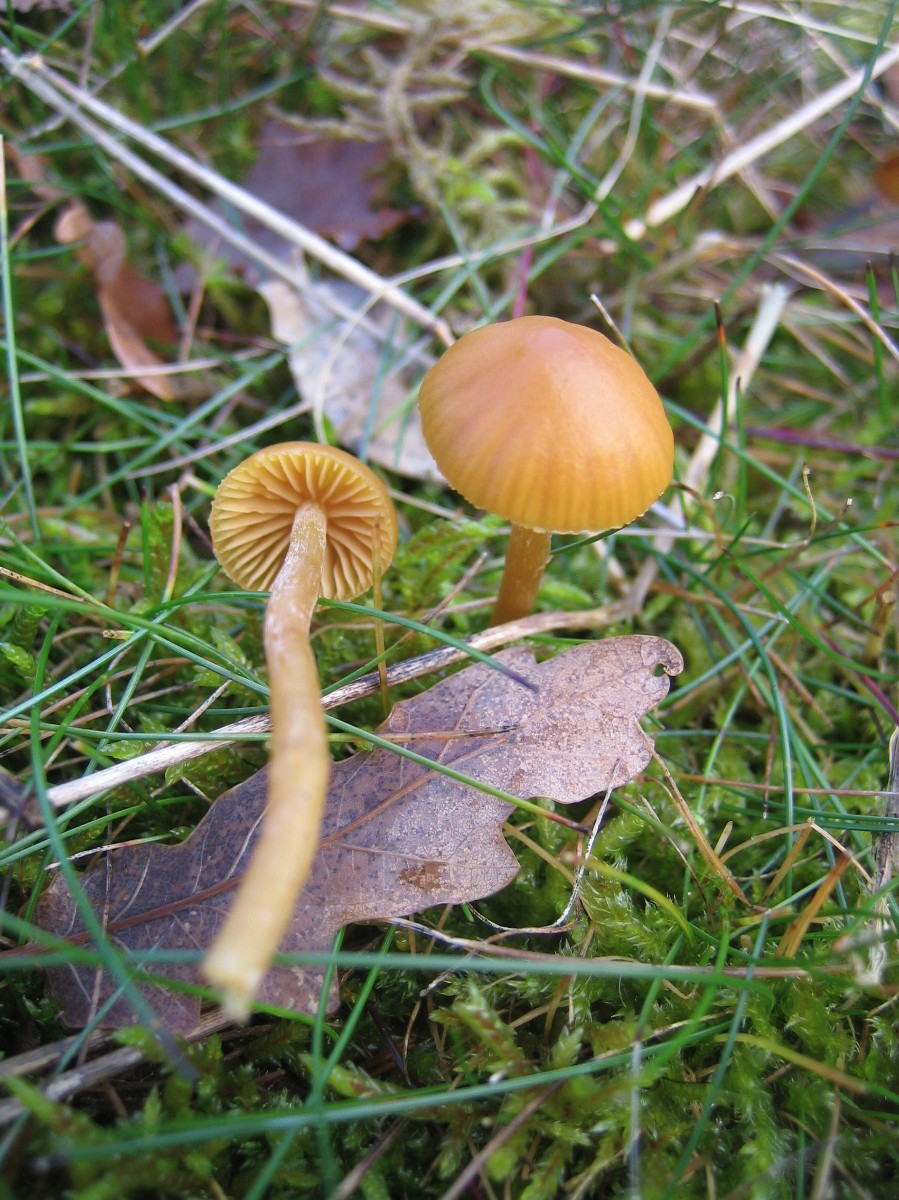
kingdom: Fungi
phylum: Basidiomycota
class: Agaricomycetes
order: Agaricales
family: Hymenogastraceae
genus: Galerina
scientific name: Galerina pumila
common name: honninggul hjelmhat
